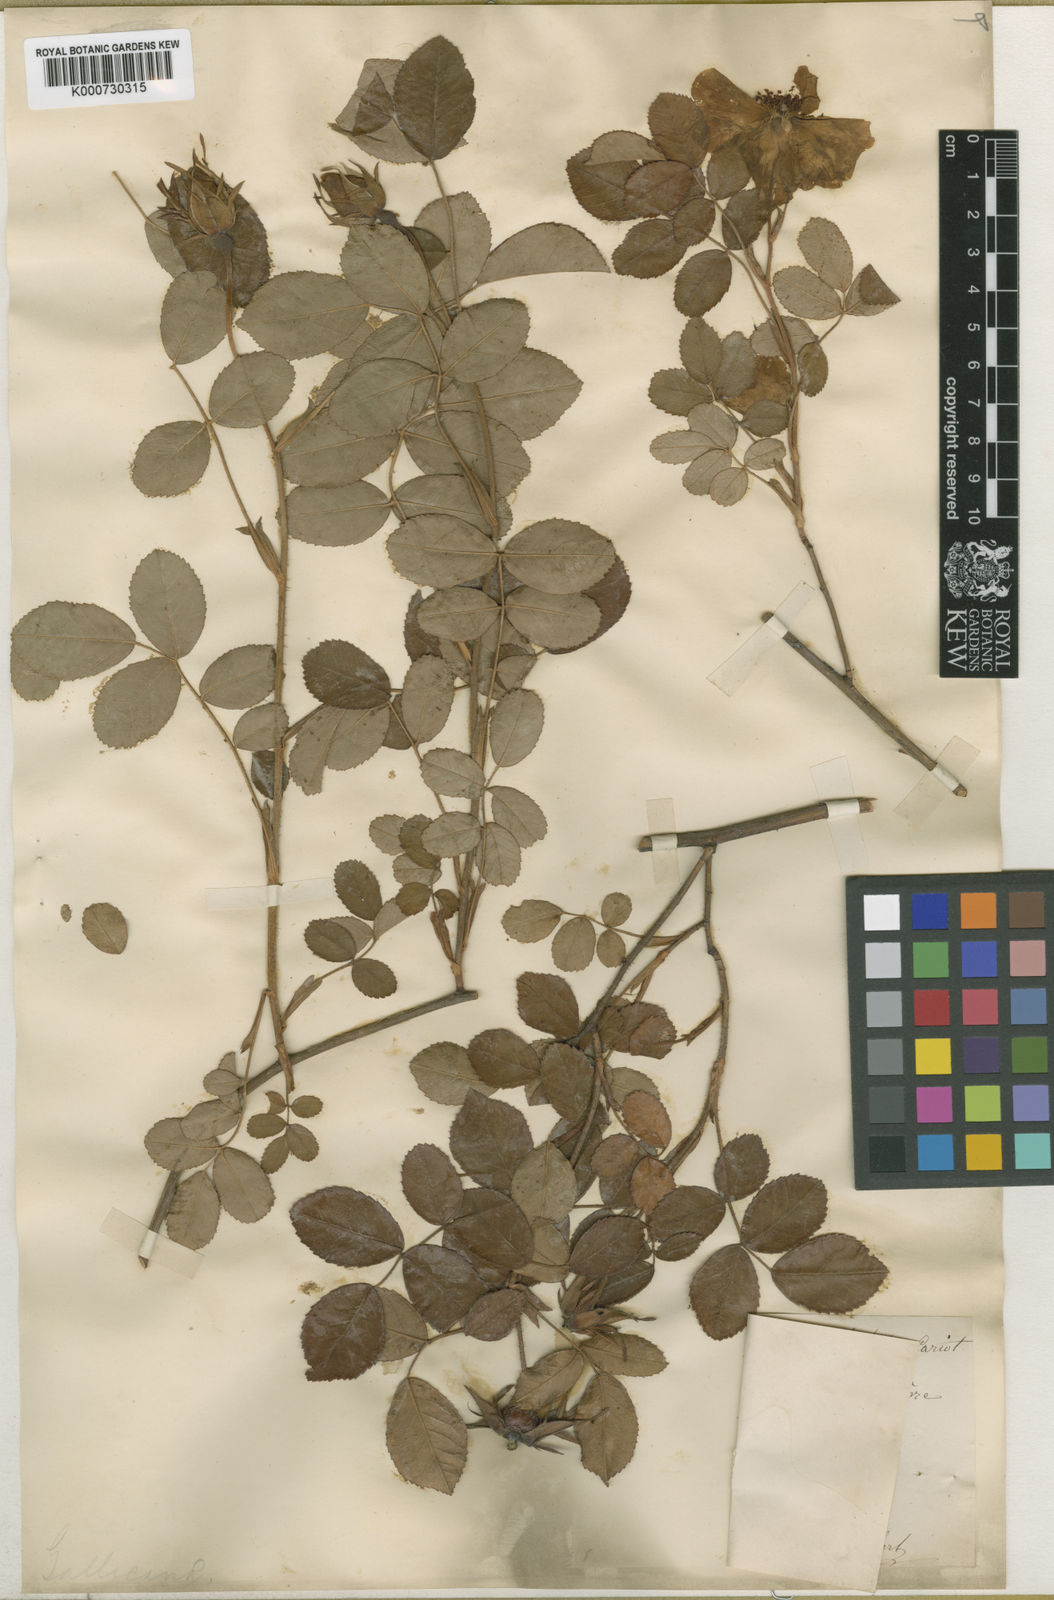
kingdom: Plantae
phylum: Tracheophyta
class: Magnoliopsida
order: Rosales
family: Rosaceae
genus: Rosa
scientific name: Rosa gallica
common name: French rose
